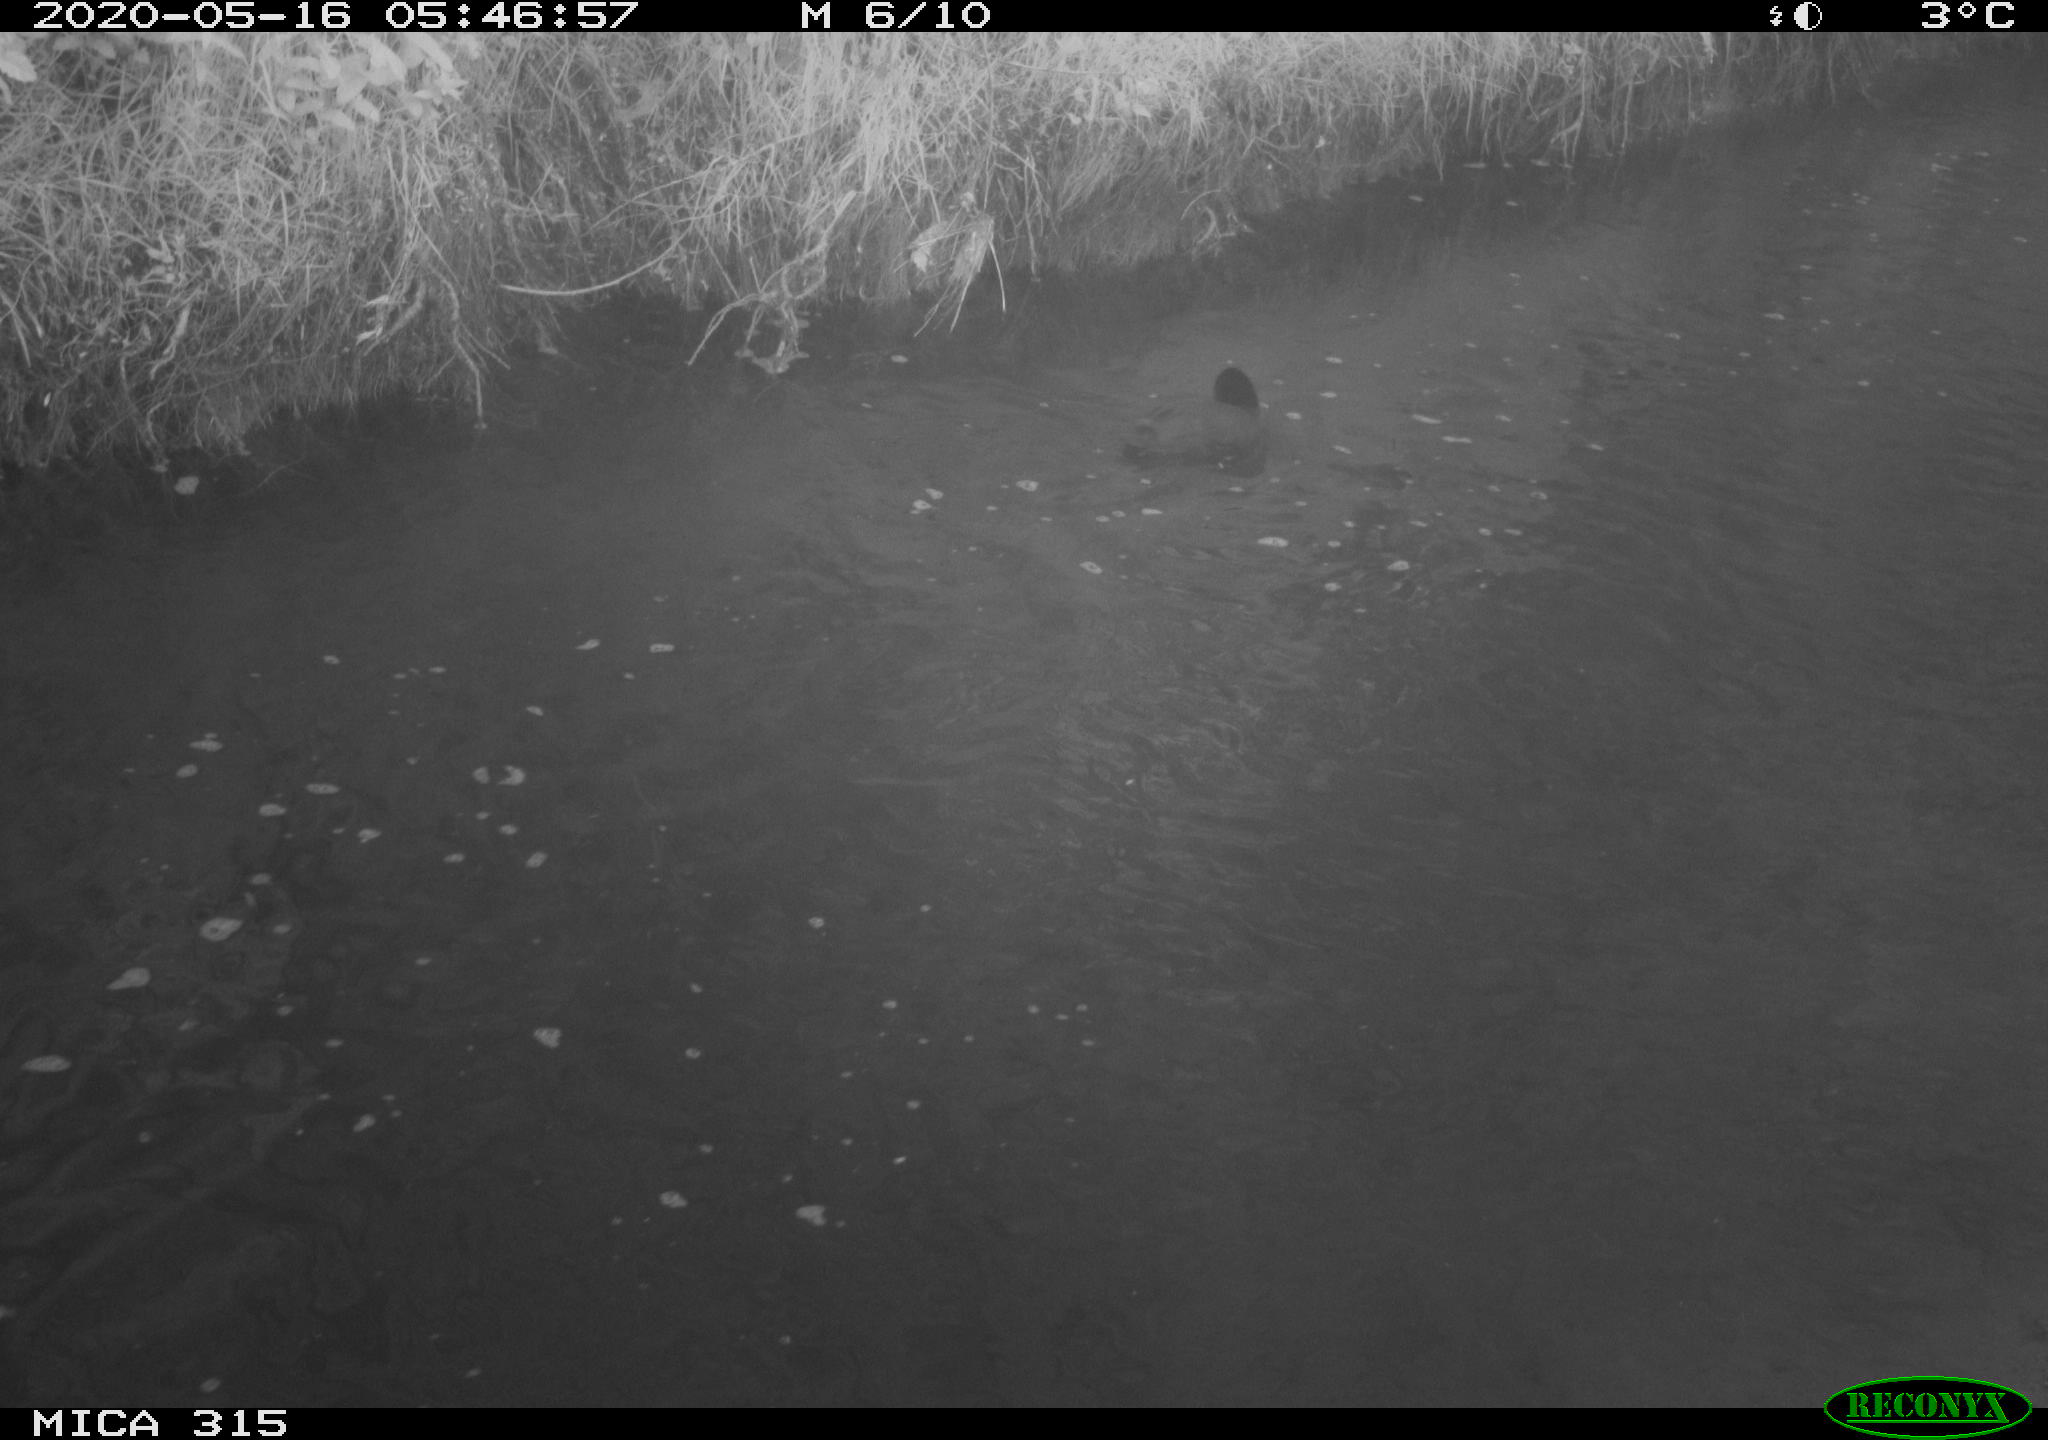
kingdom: Animalia
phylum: Chordata
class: Aves
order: Gruiformes
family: Rallidae
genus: Fulica
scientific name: Fulica atra
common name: Eurasian coot
